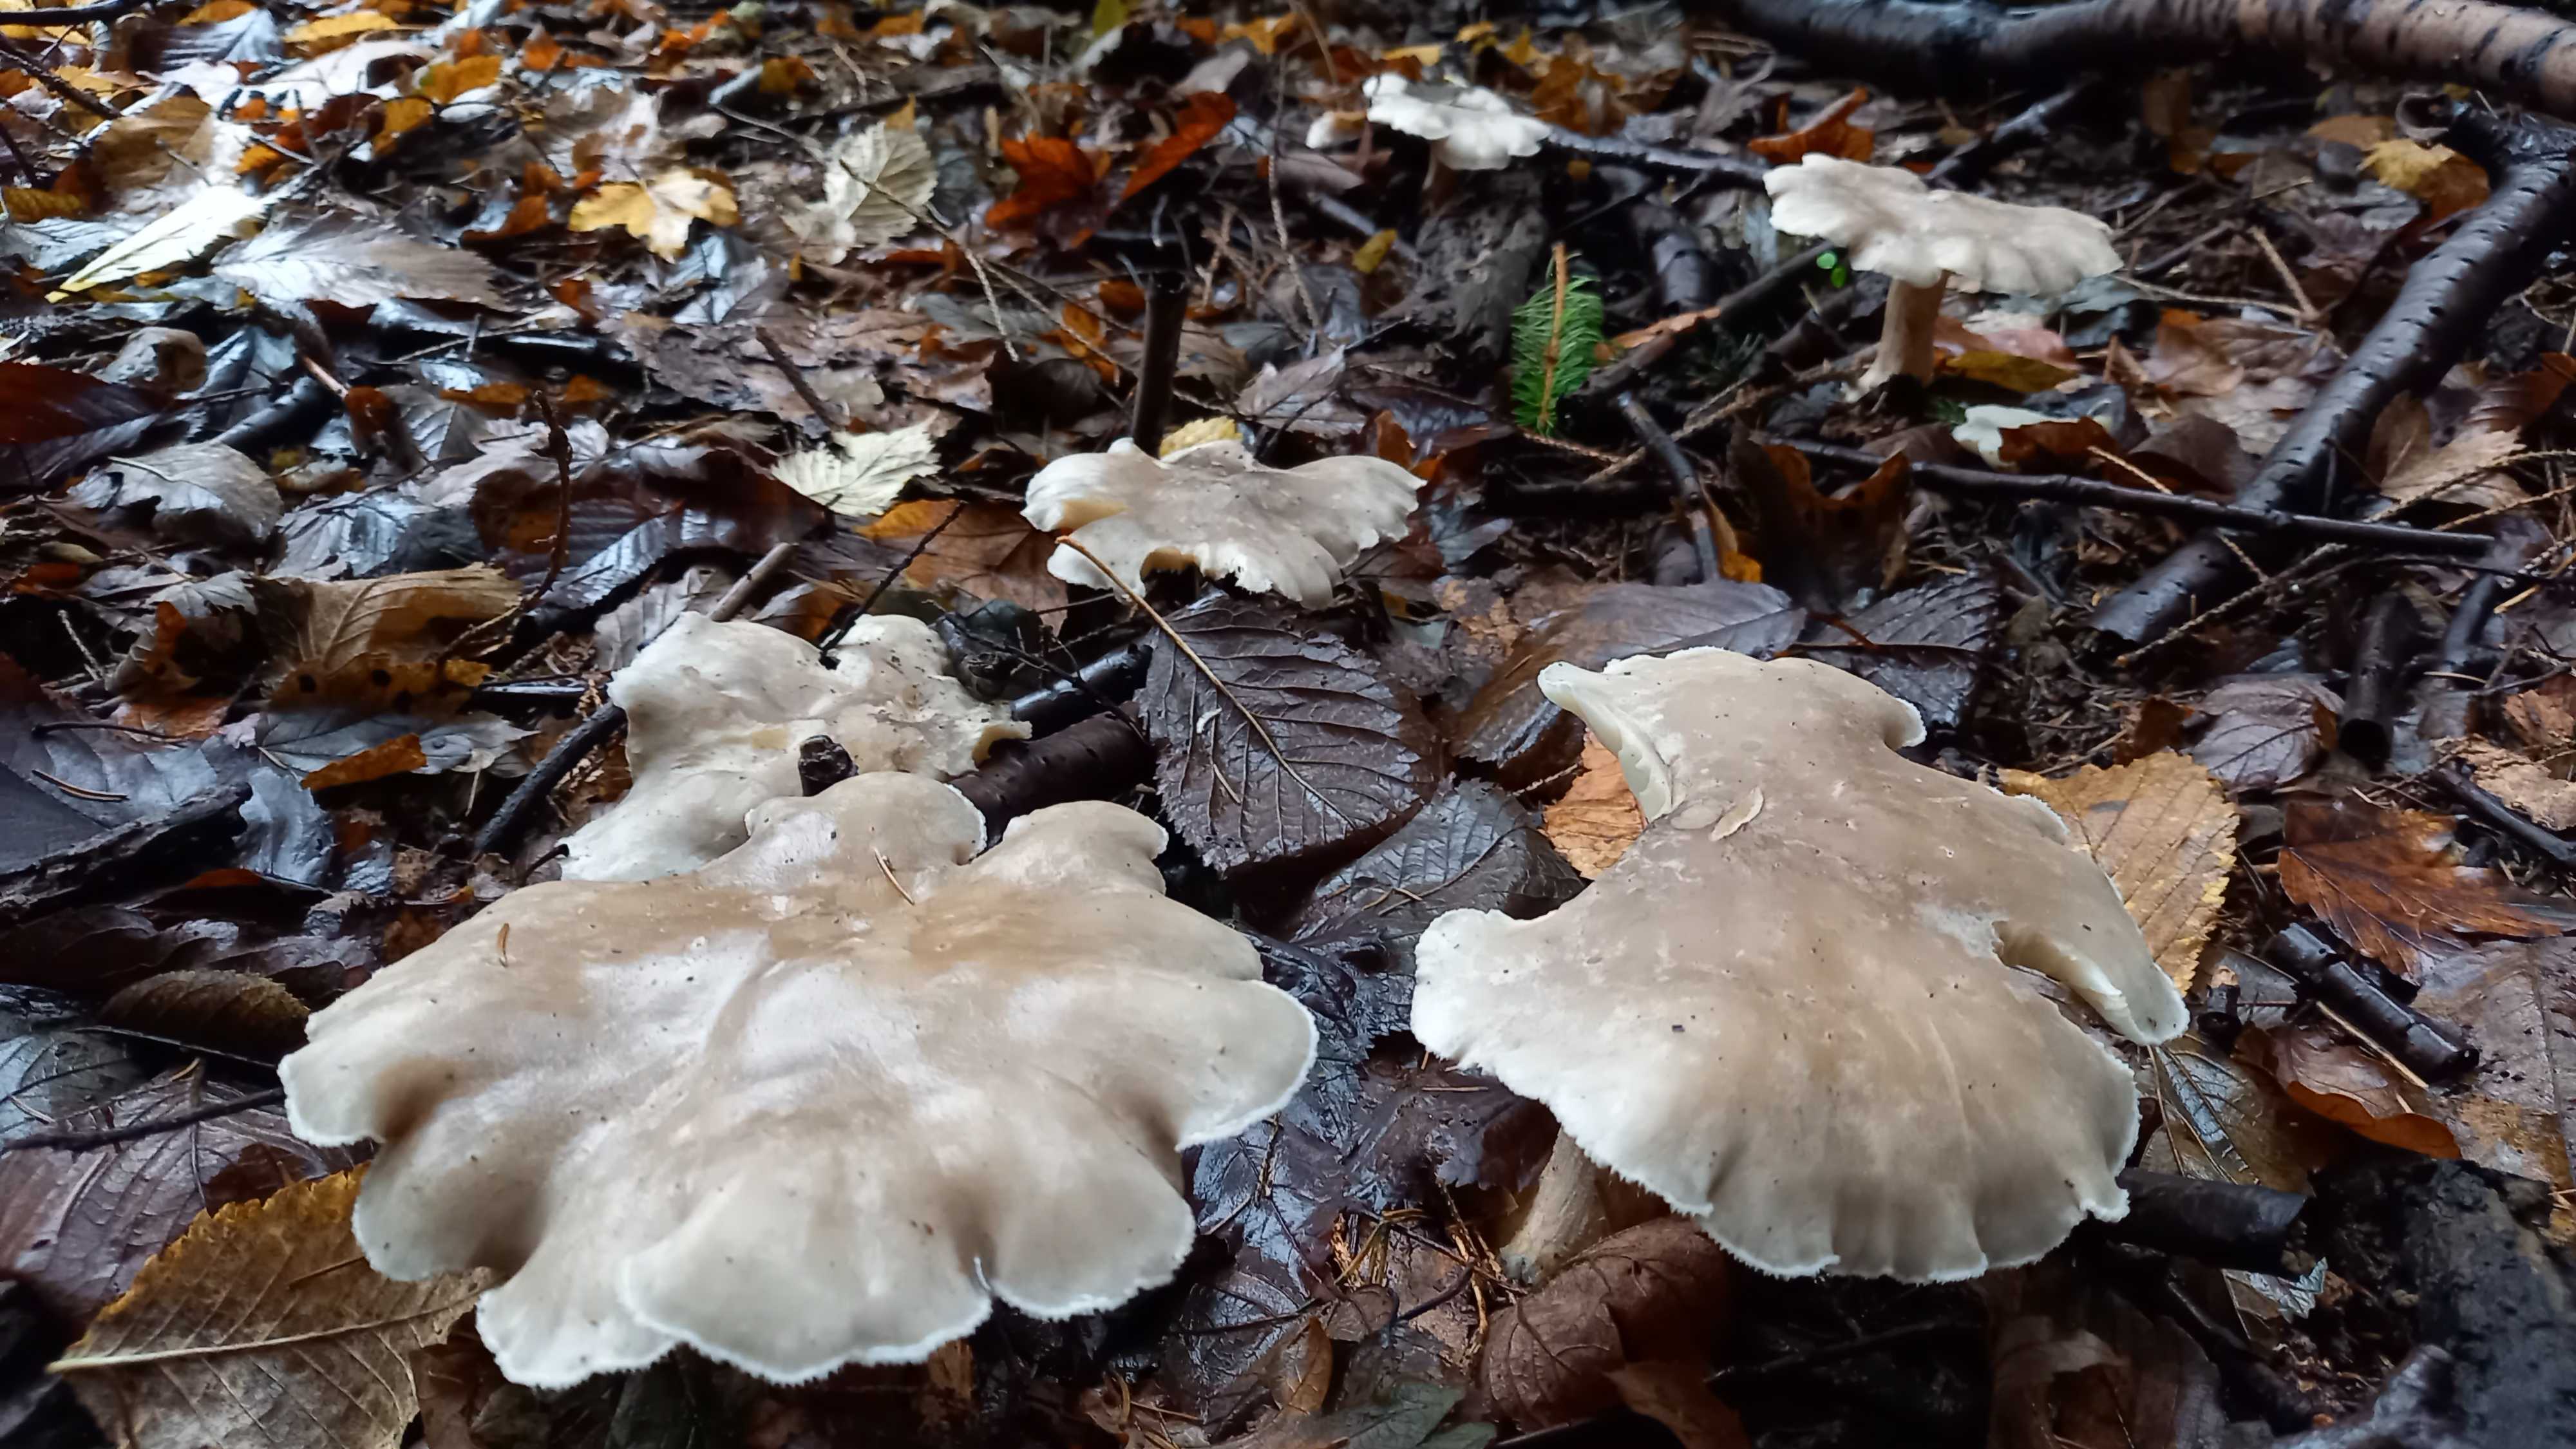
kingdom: Fungi
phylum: Basidiomycota
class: Agaricomycetes
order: Agaricales
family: Tricholomataceae
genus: Clitocybe
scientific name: Clitocybe nebularis
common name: tåge-tragthat
